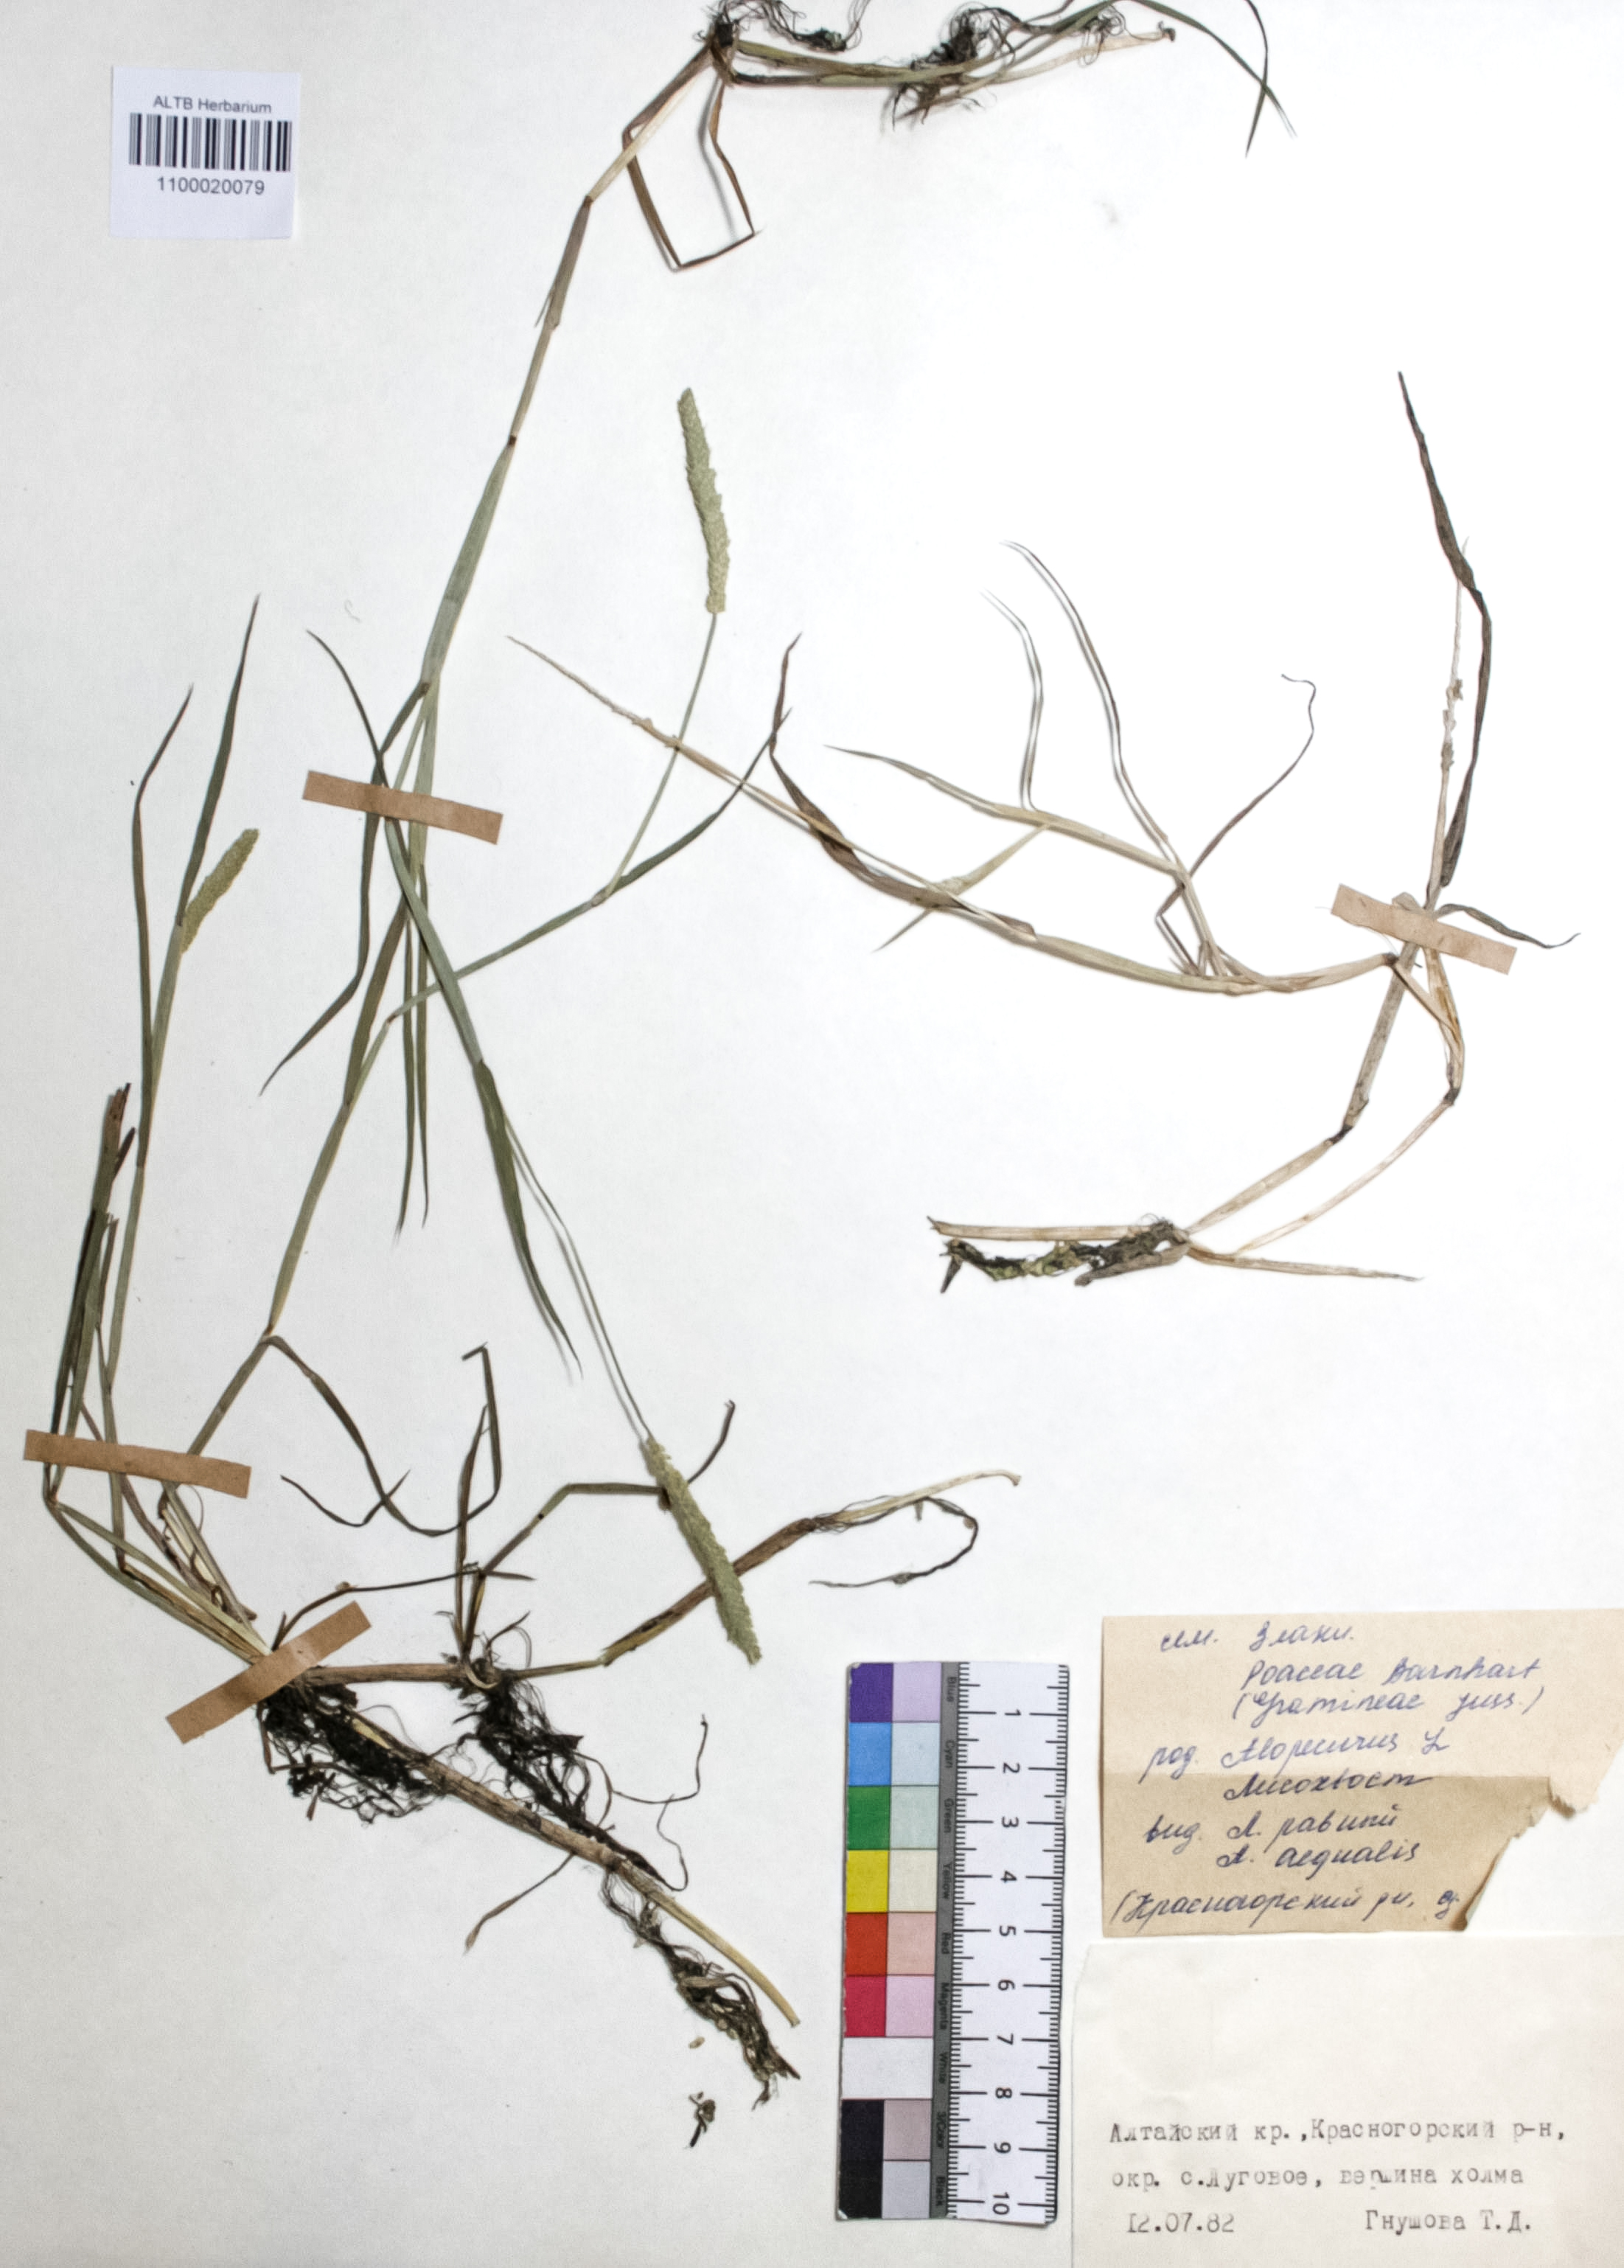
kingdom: Plantae
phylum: Tracheophyta
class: Liliopsida
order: Poales
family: Poaceae
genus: Alopecurus
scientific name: Alopecurus aequalis
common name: Orange foxtail
